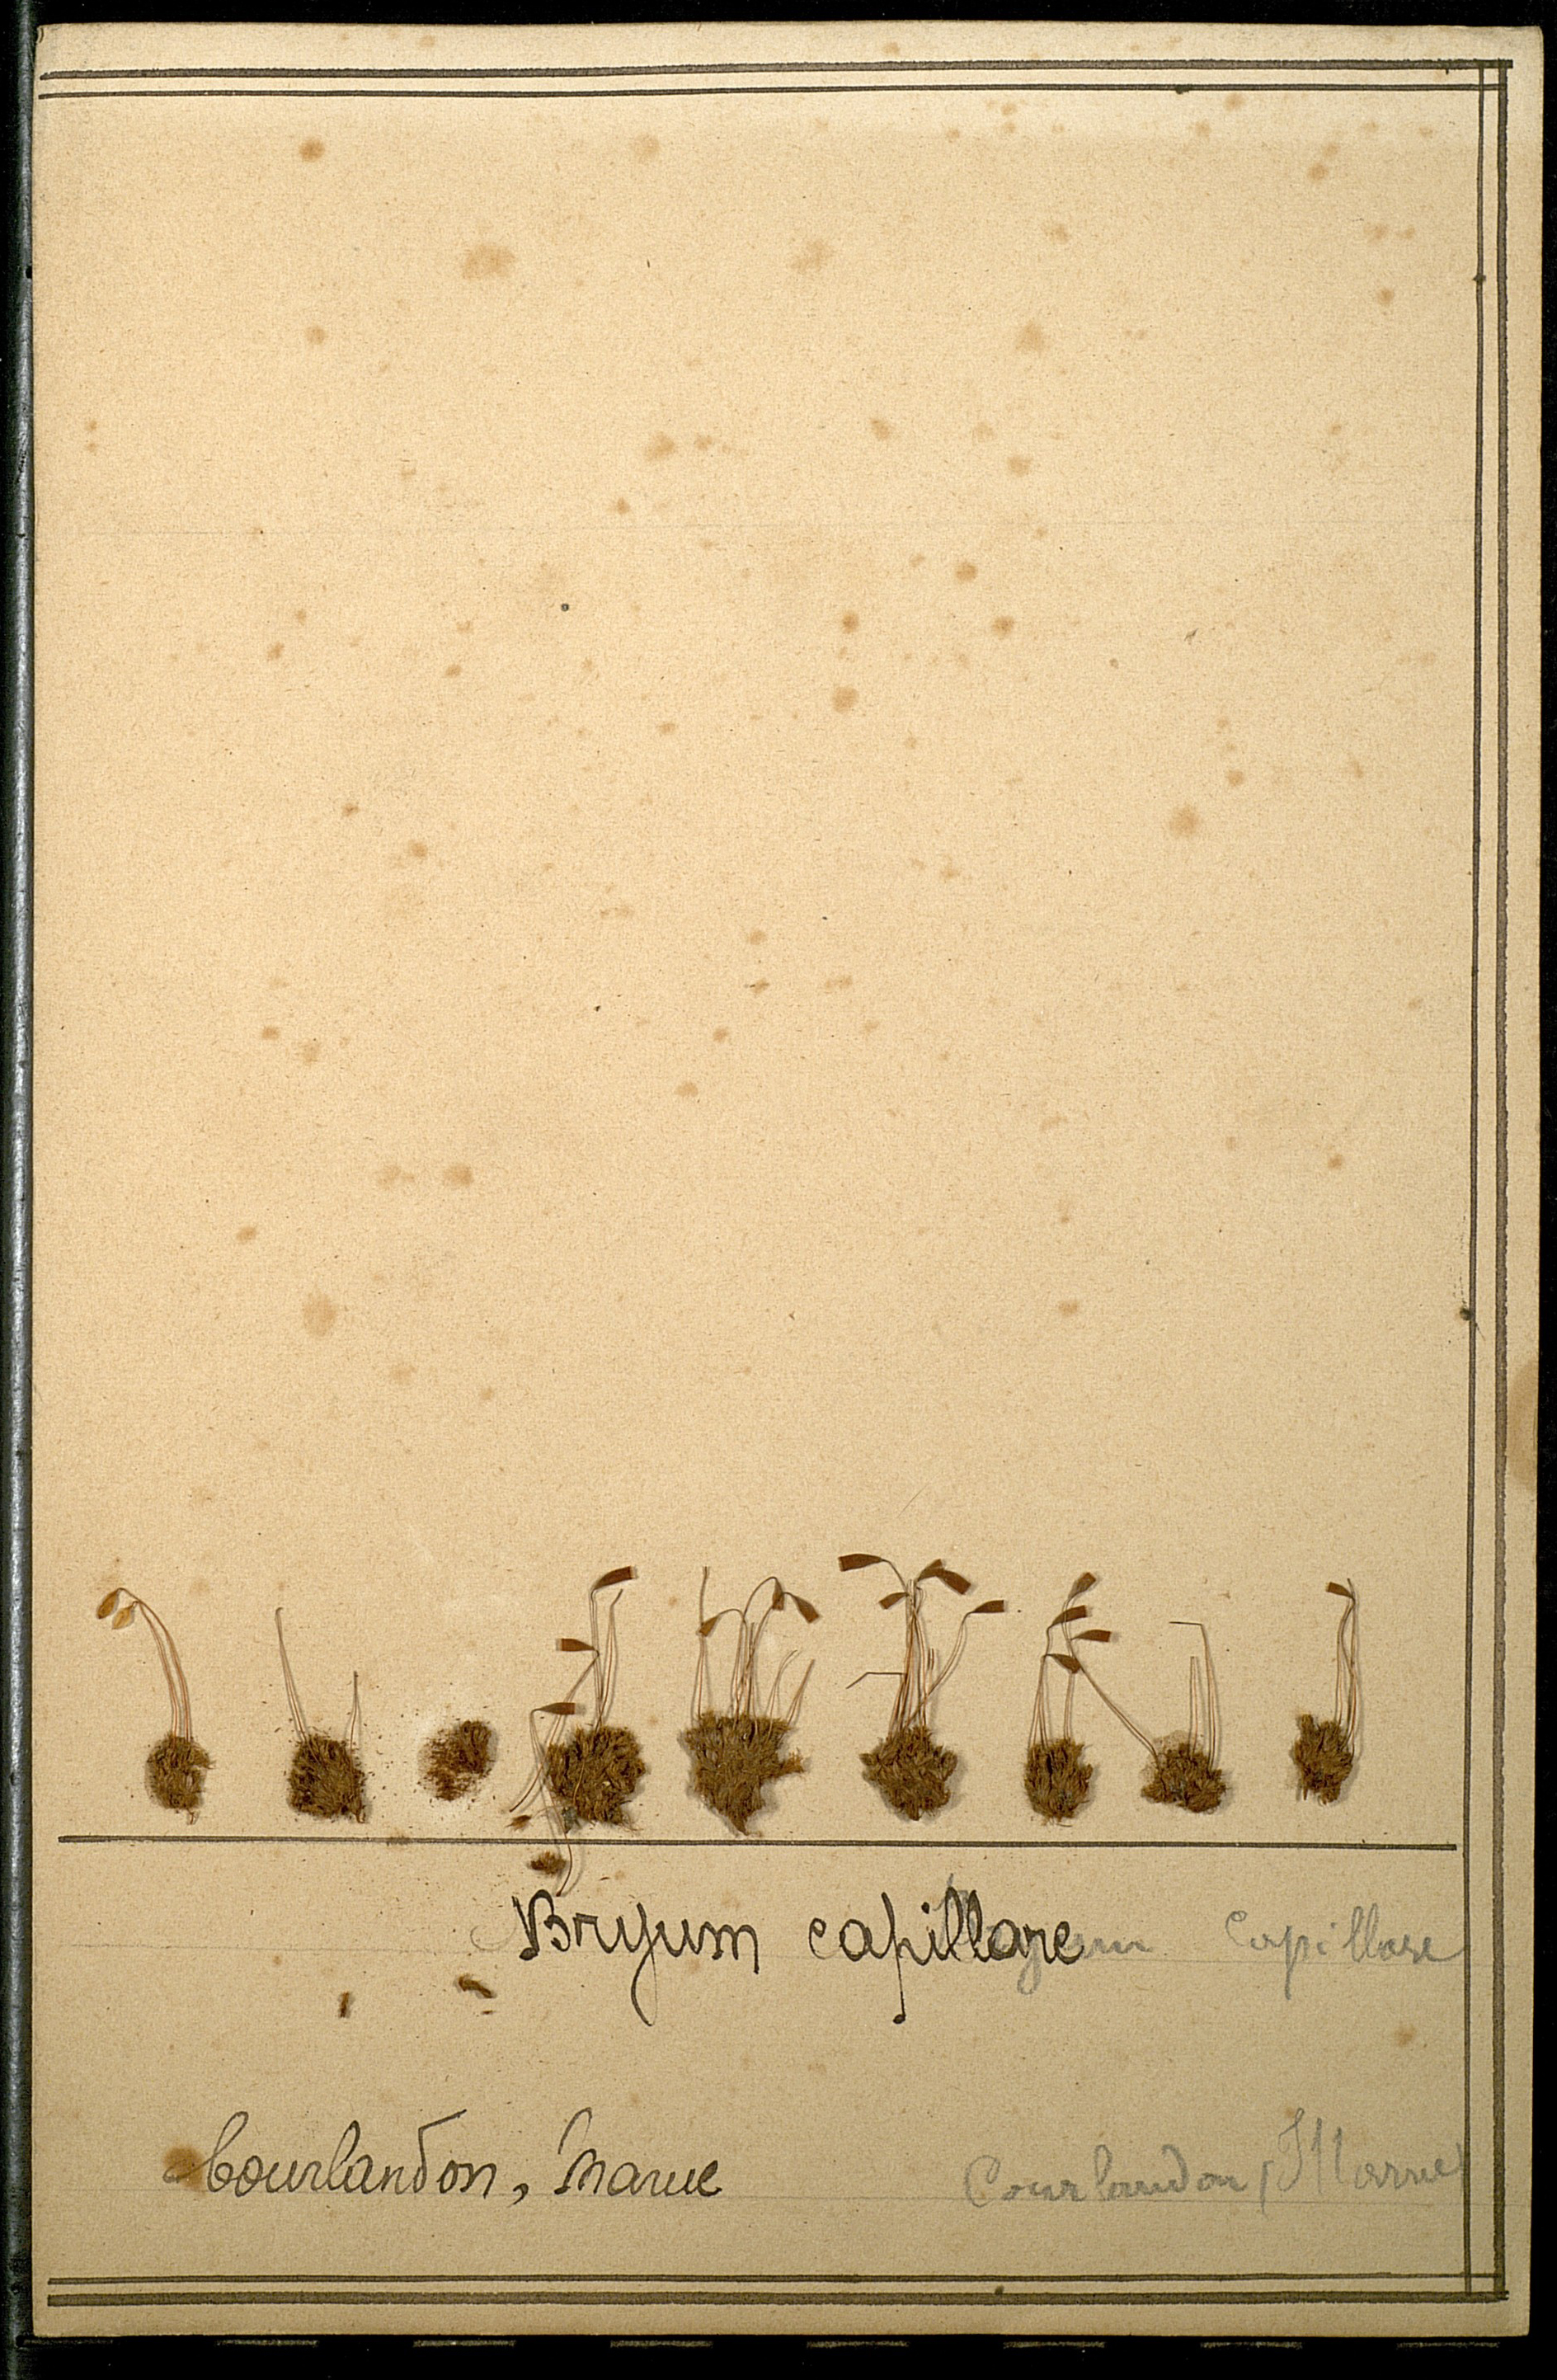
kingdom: Plantae
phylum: Bryophyta
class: Bryopsida
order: Bryales
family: Bryaceae
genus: Rosulabryum
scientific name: Rosulabryum capillare
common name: Capillary thread-moss
